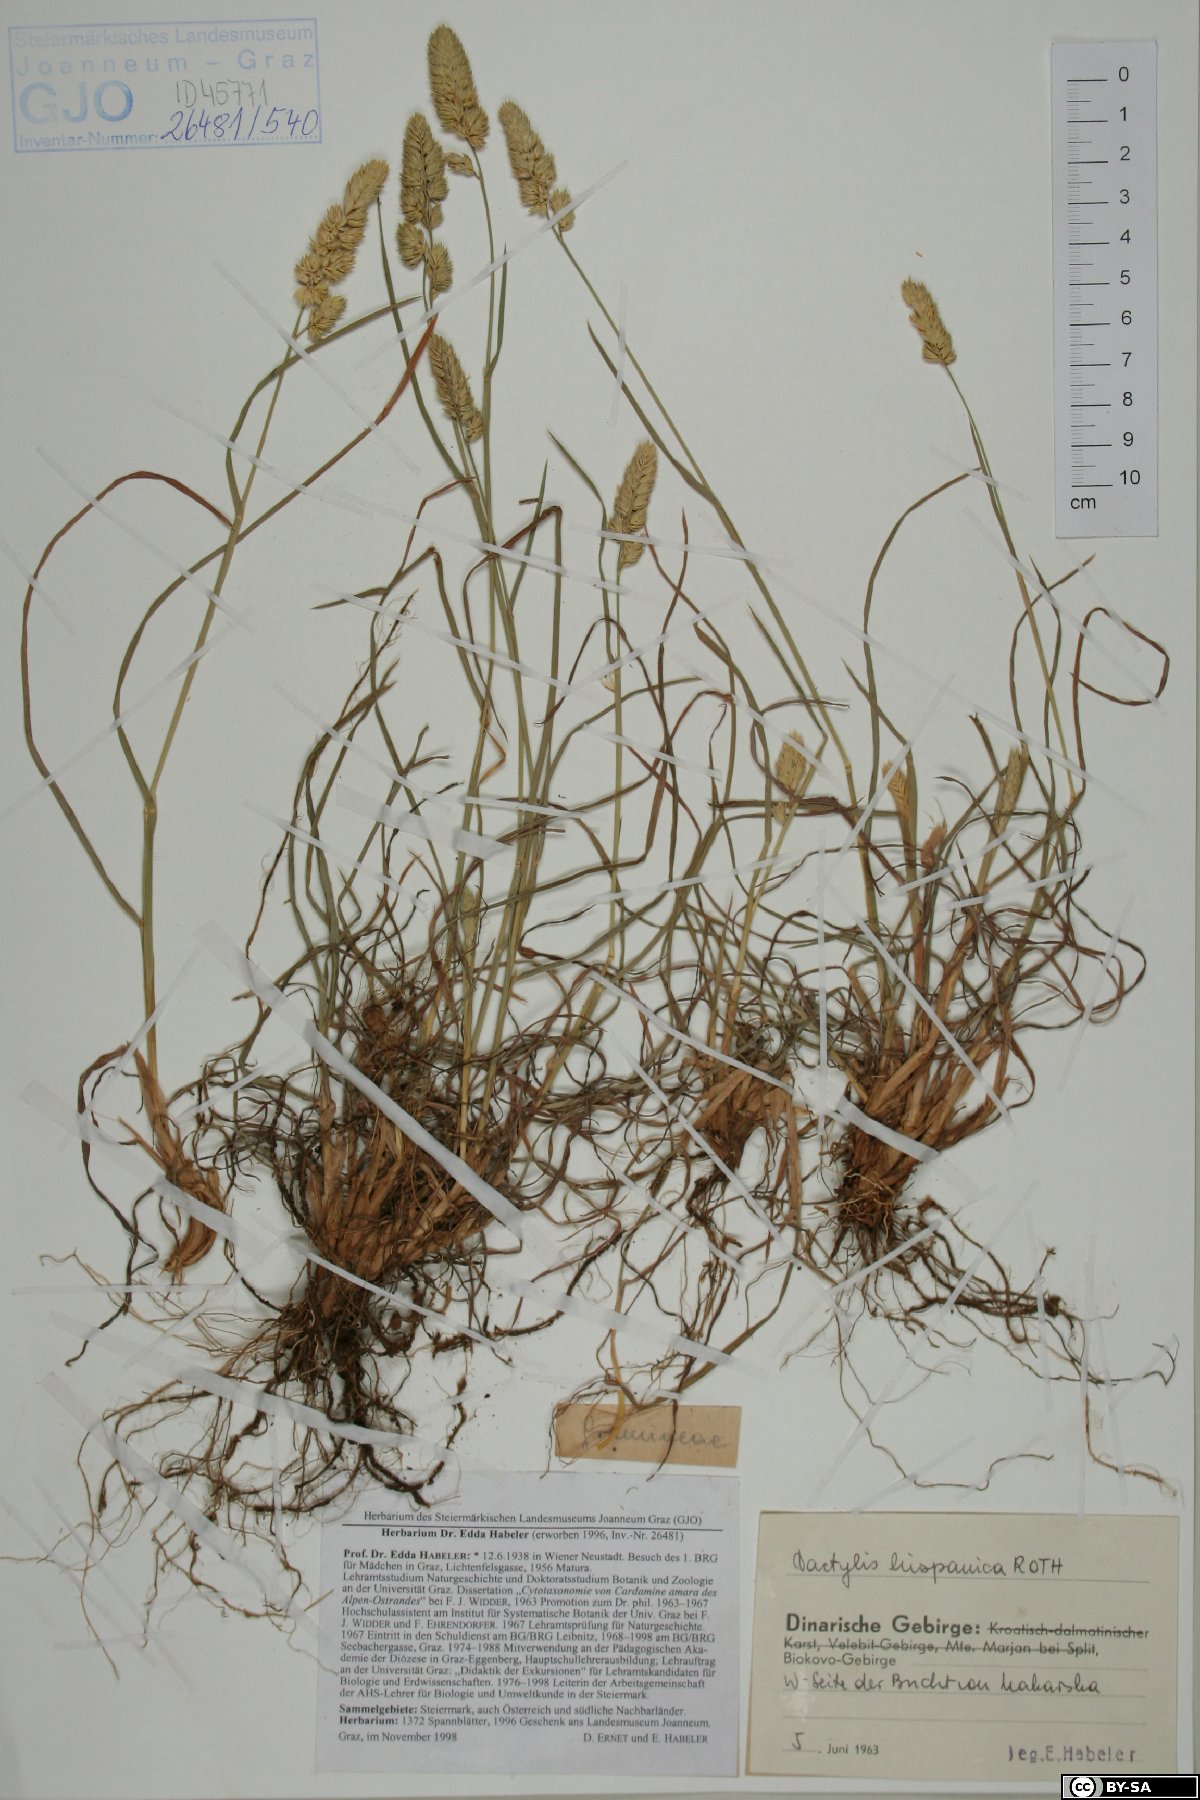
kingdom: Plantae
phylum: Tracheophyta
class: Liliopsida
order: Poales
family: Poaceae
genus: Dactylis
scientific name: Dactylis glomerata
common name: Orchardgrass
